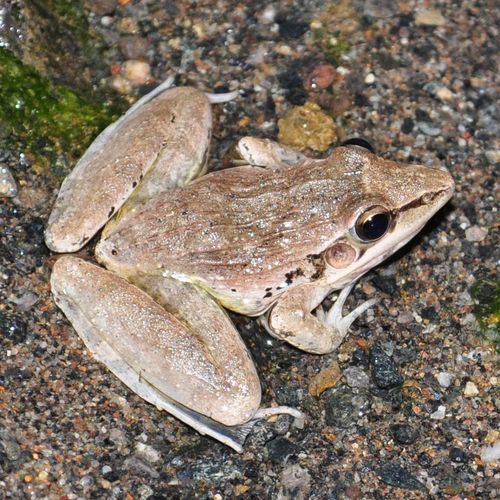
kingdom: Animalia
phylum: Chordata
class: Amphibia
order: Anura
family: Ptychadenidae
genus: Ptychadena
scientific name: Ptychadena oxyrhynchus
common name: Sharp-nosed ridged frog
